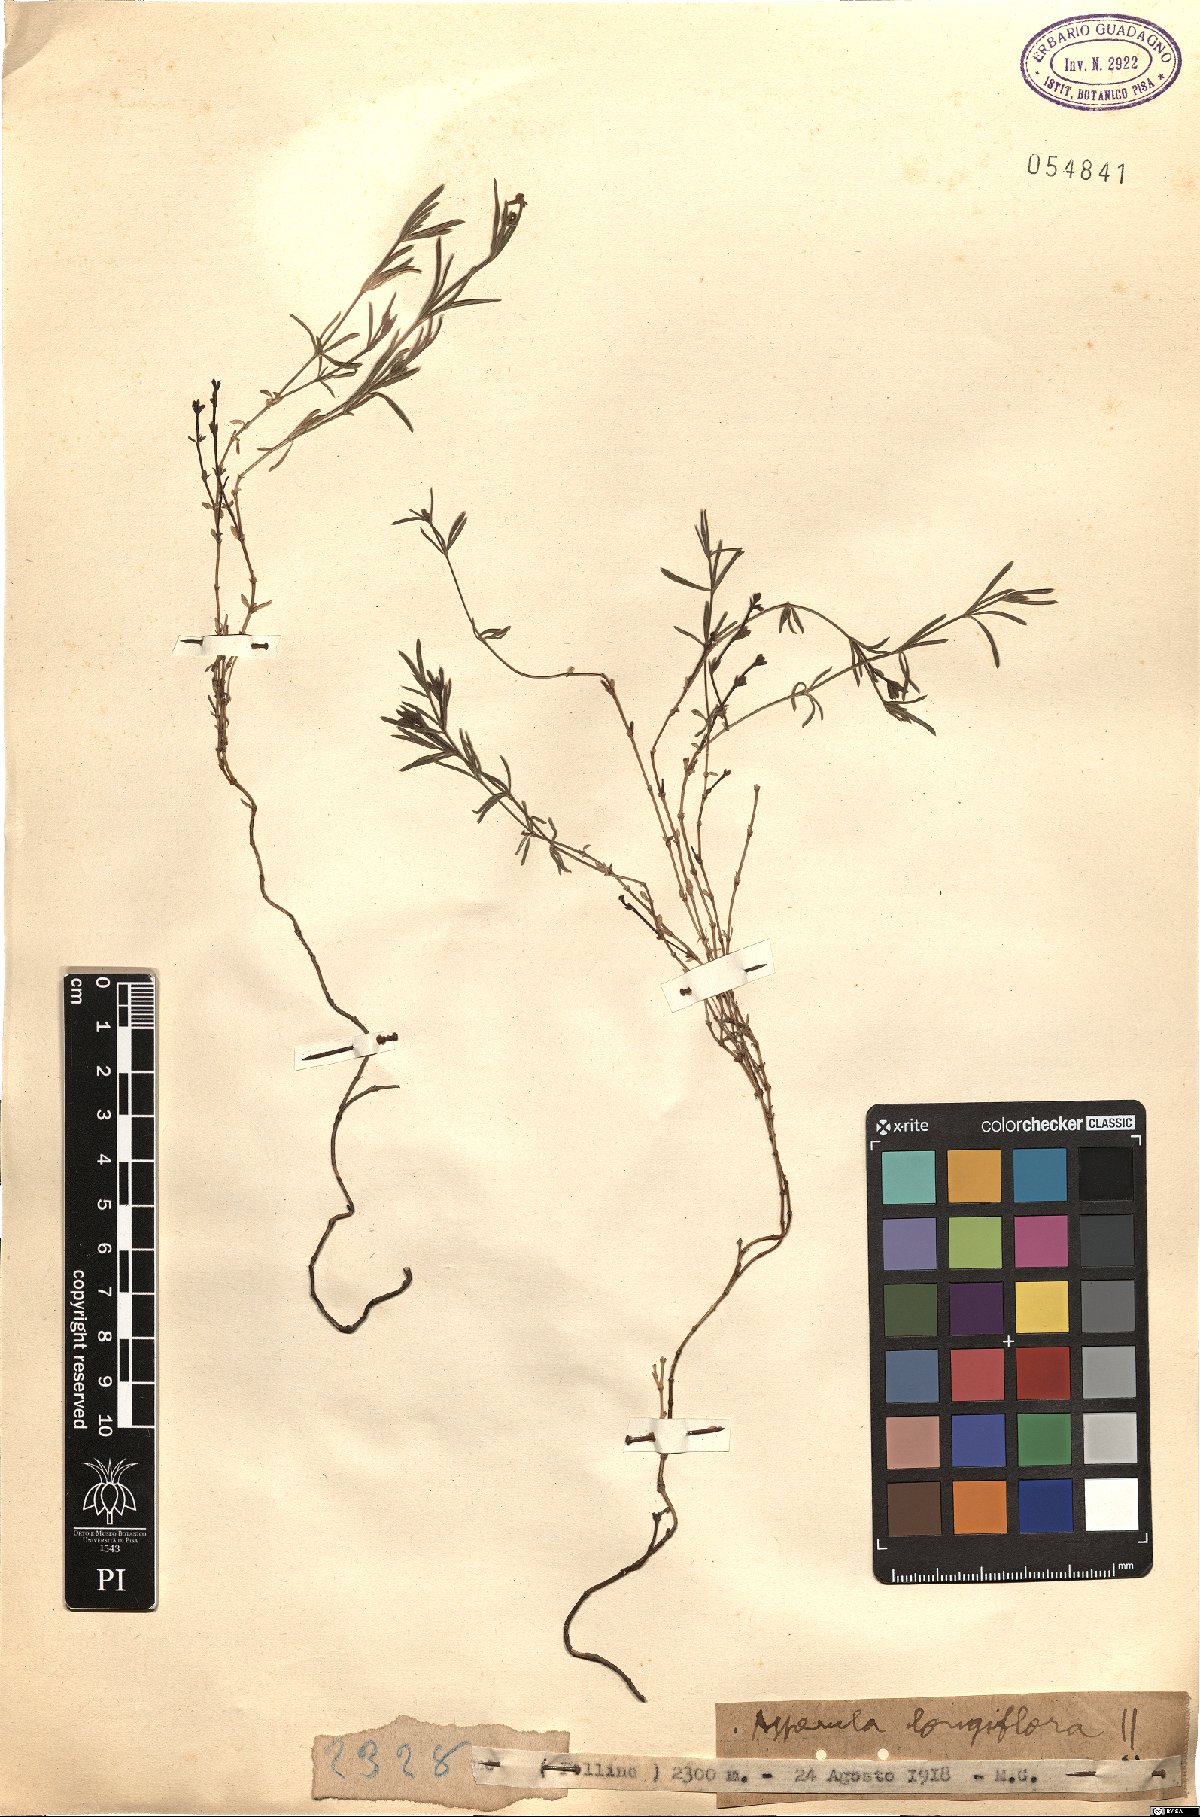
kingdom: Plantae
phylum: Tracheophyta
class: Magnoliopsida
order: Gentianales
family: Rubiaceae
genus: Cynanchica
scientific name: Cynanchica aristata
